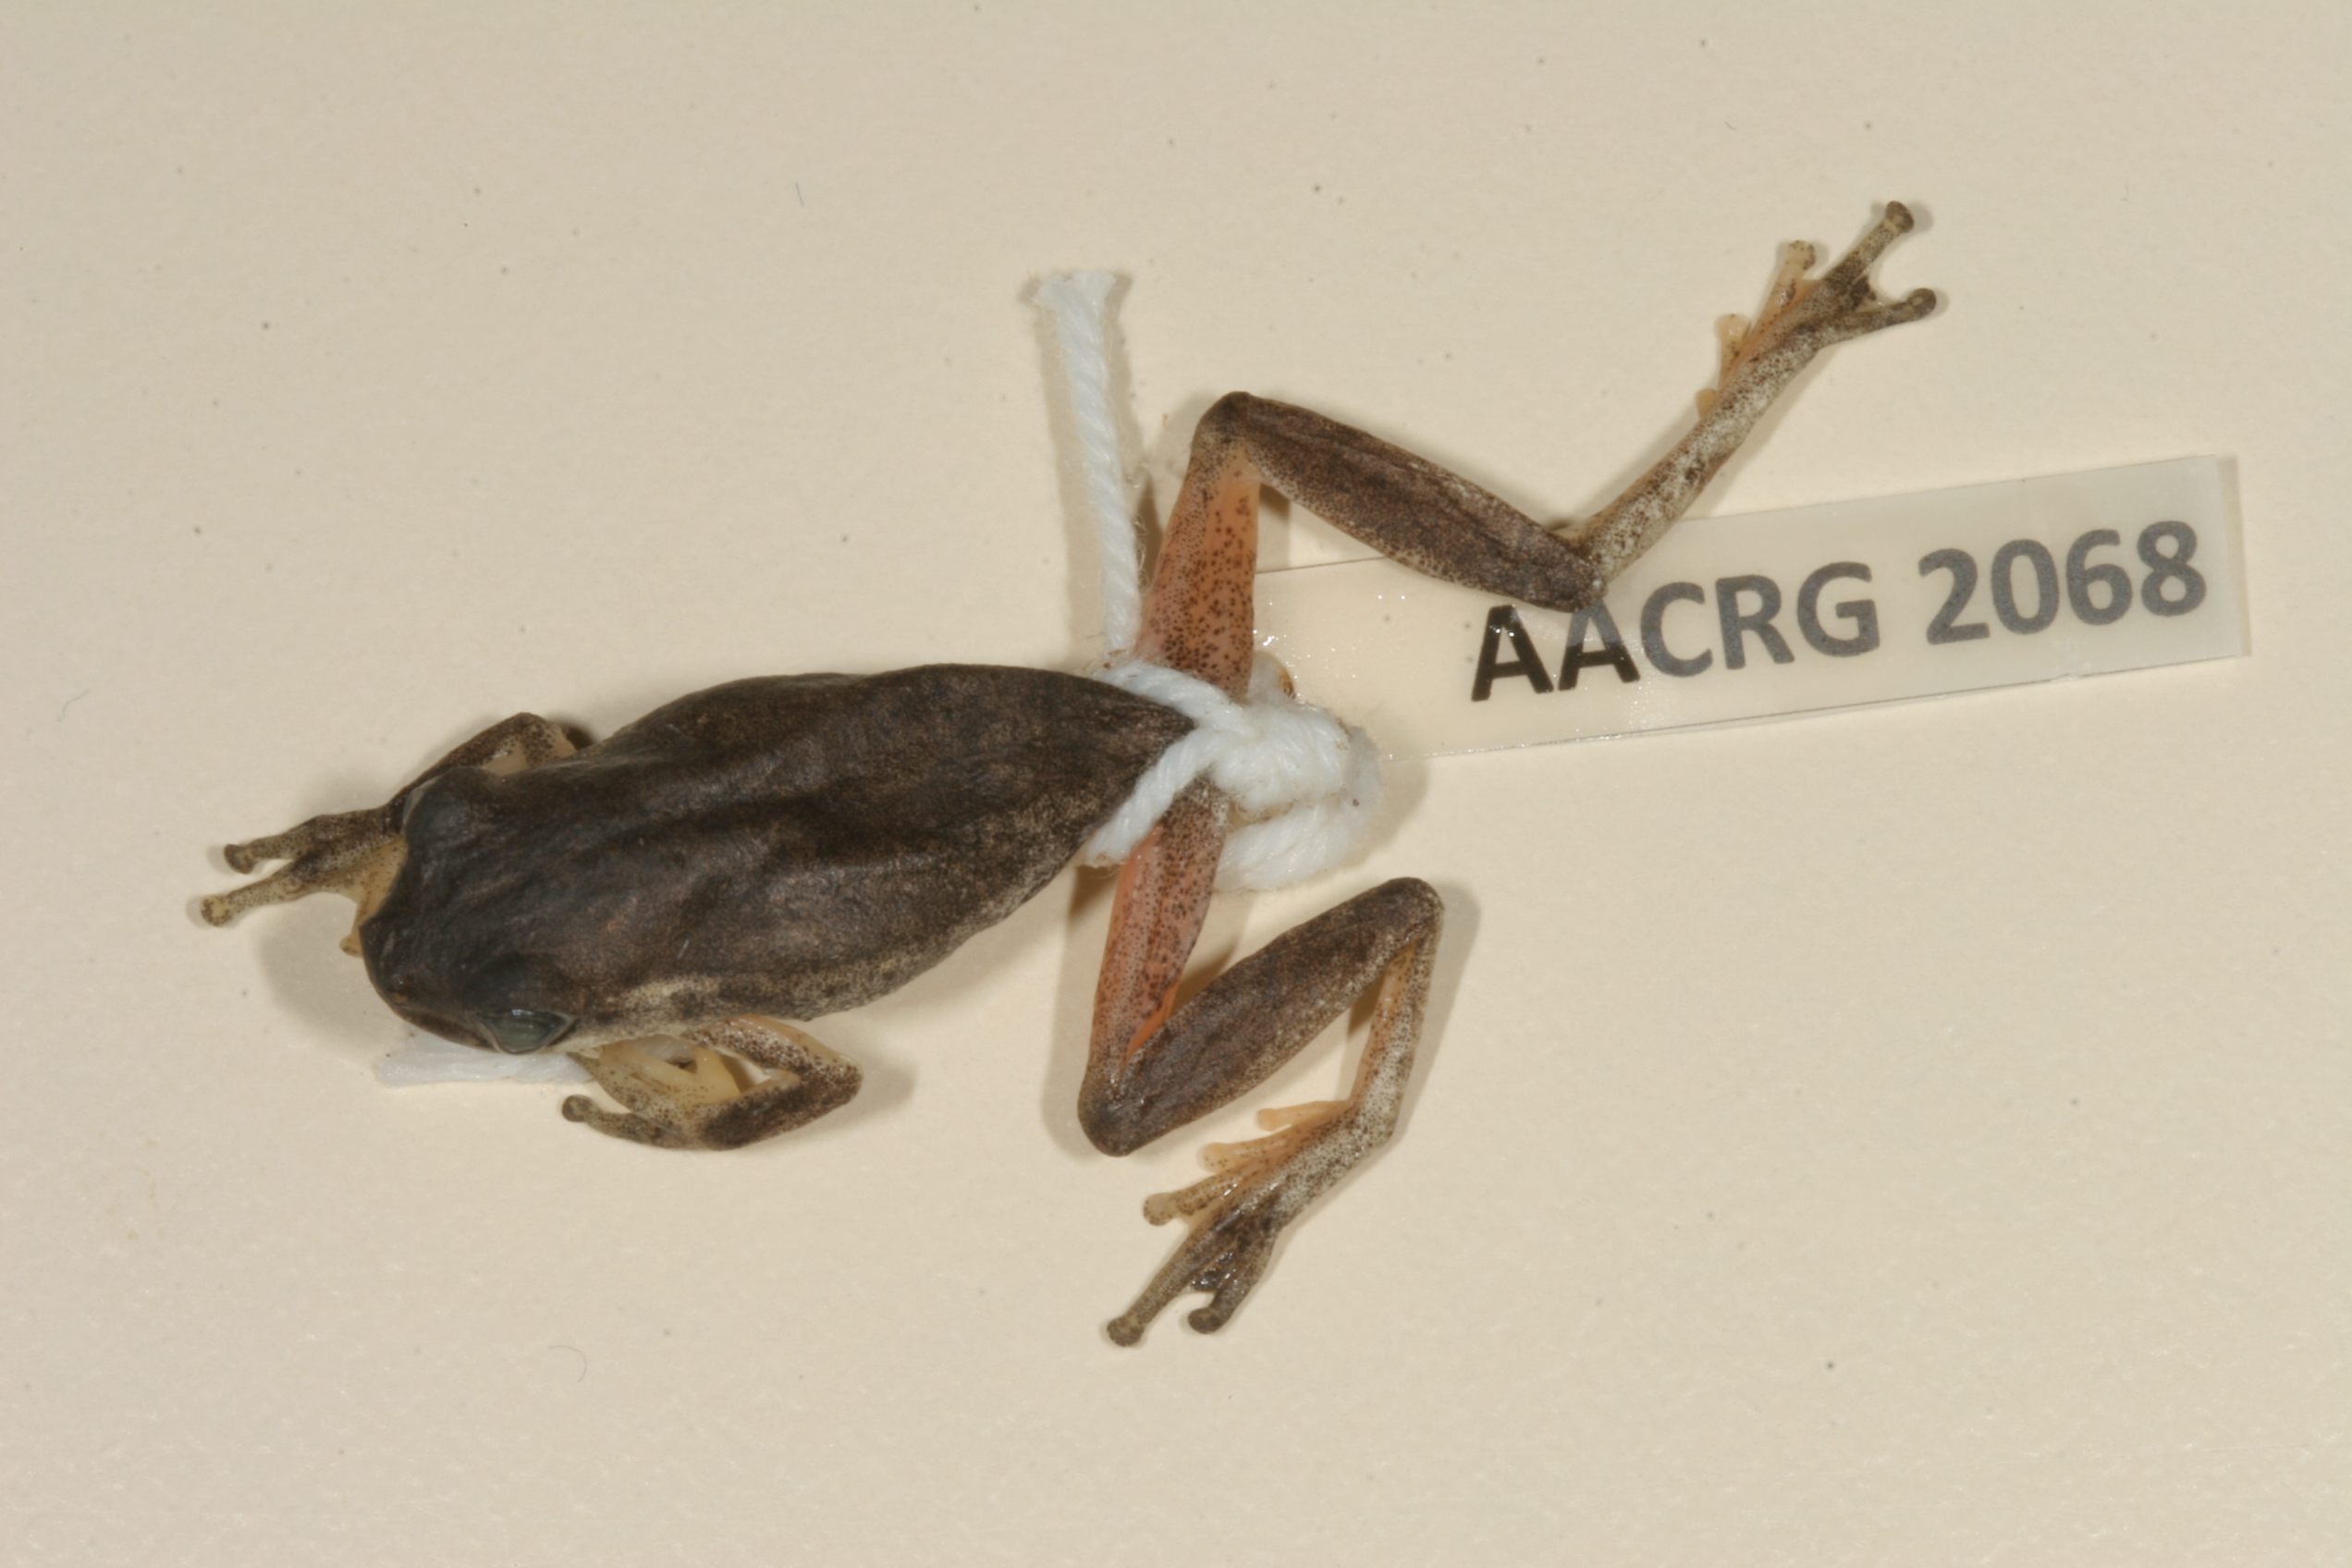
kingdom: Animalia
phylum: Chordata
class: Amphibia
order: Anura
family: Hyperoliidae
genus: Hyperolius
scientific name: Hyperolius marmoratus
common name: Painted reed frog
